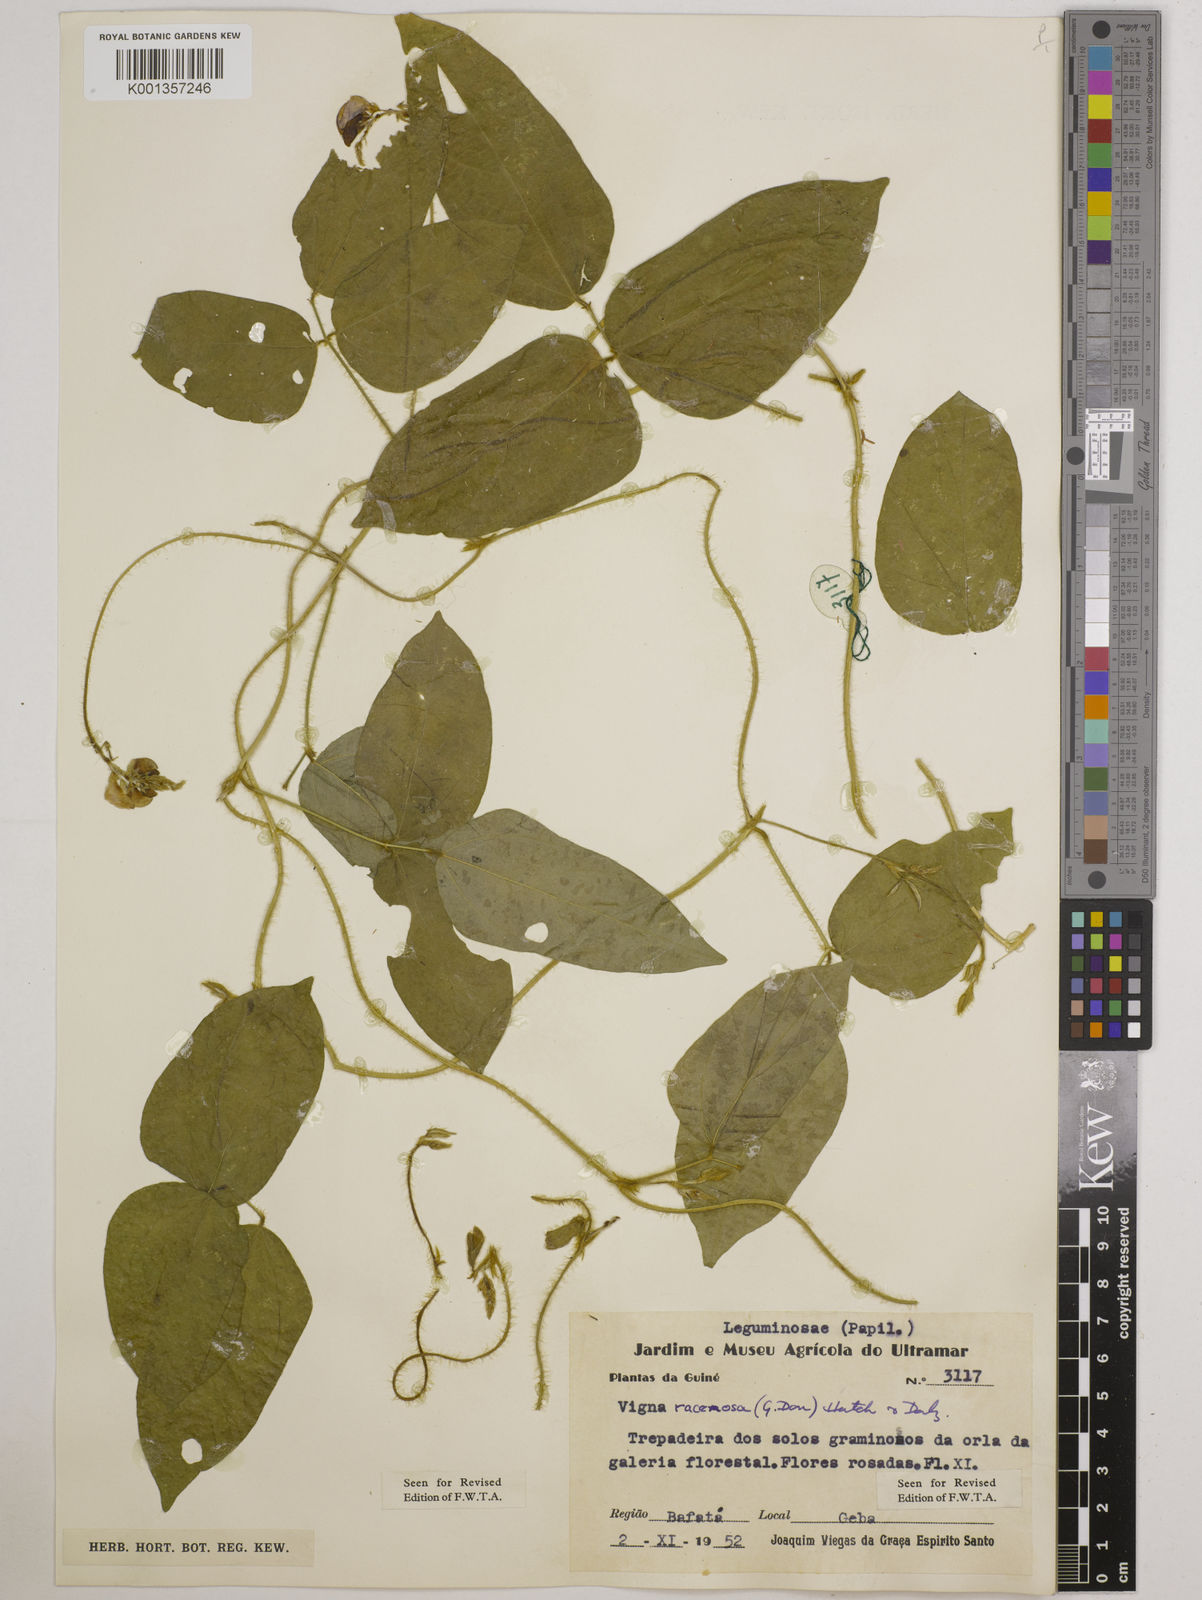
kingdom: Plantae
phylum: Tracheophyta
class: Magnoliopsida
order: Fabales
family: Fabaceae
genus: Vigna
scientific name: Vigna racemosa
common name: Beans not eaten
